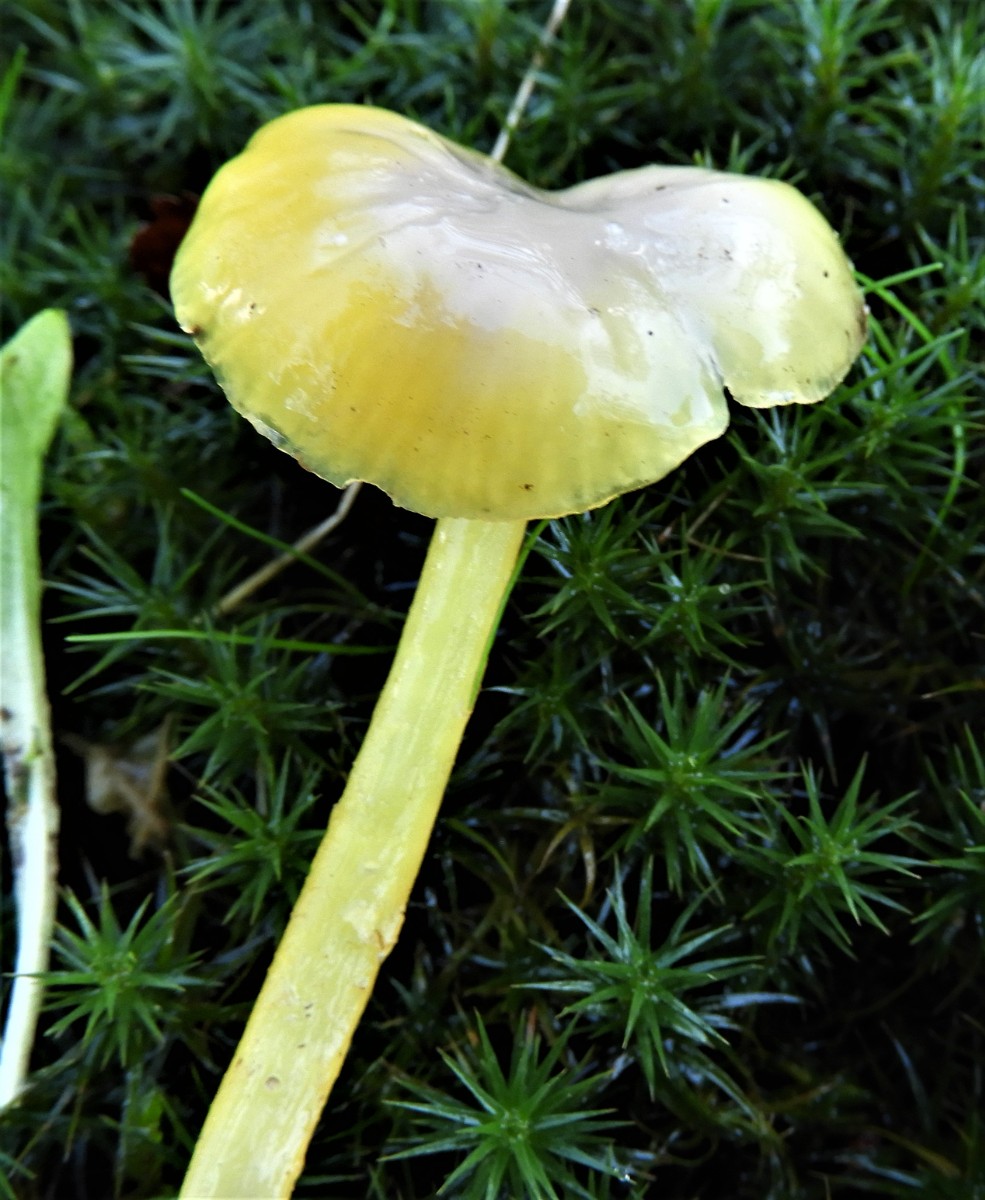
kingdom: Fungi
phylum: Basidiomycota
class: Agaricomycetes
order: Agaricales
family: Hygrophoraceae
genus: Hygrocybe
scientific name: Hygrocybe glutinipes
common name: slimstokket vokshat
